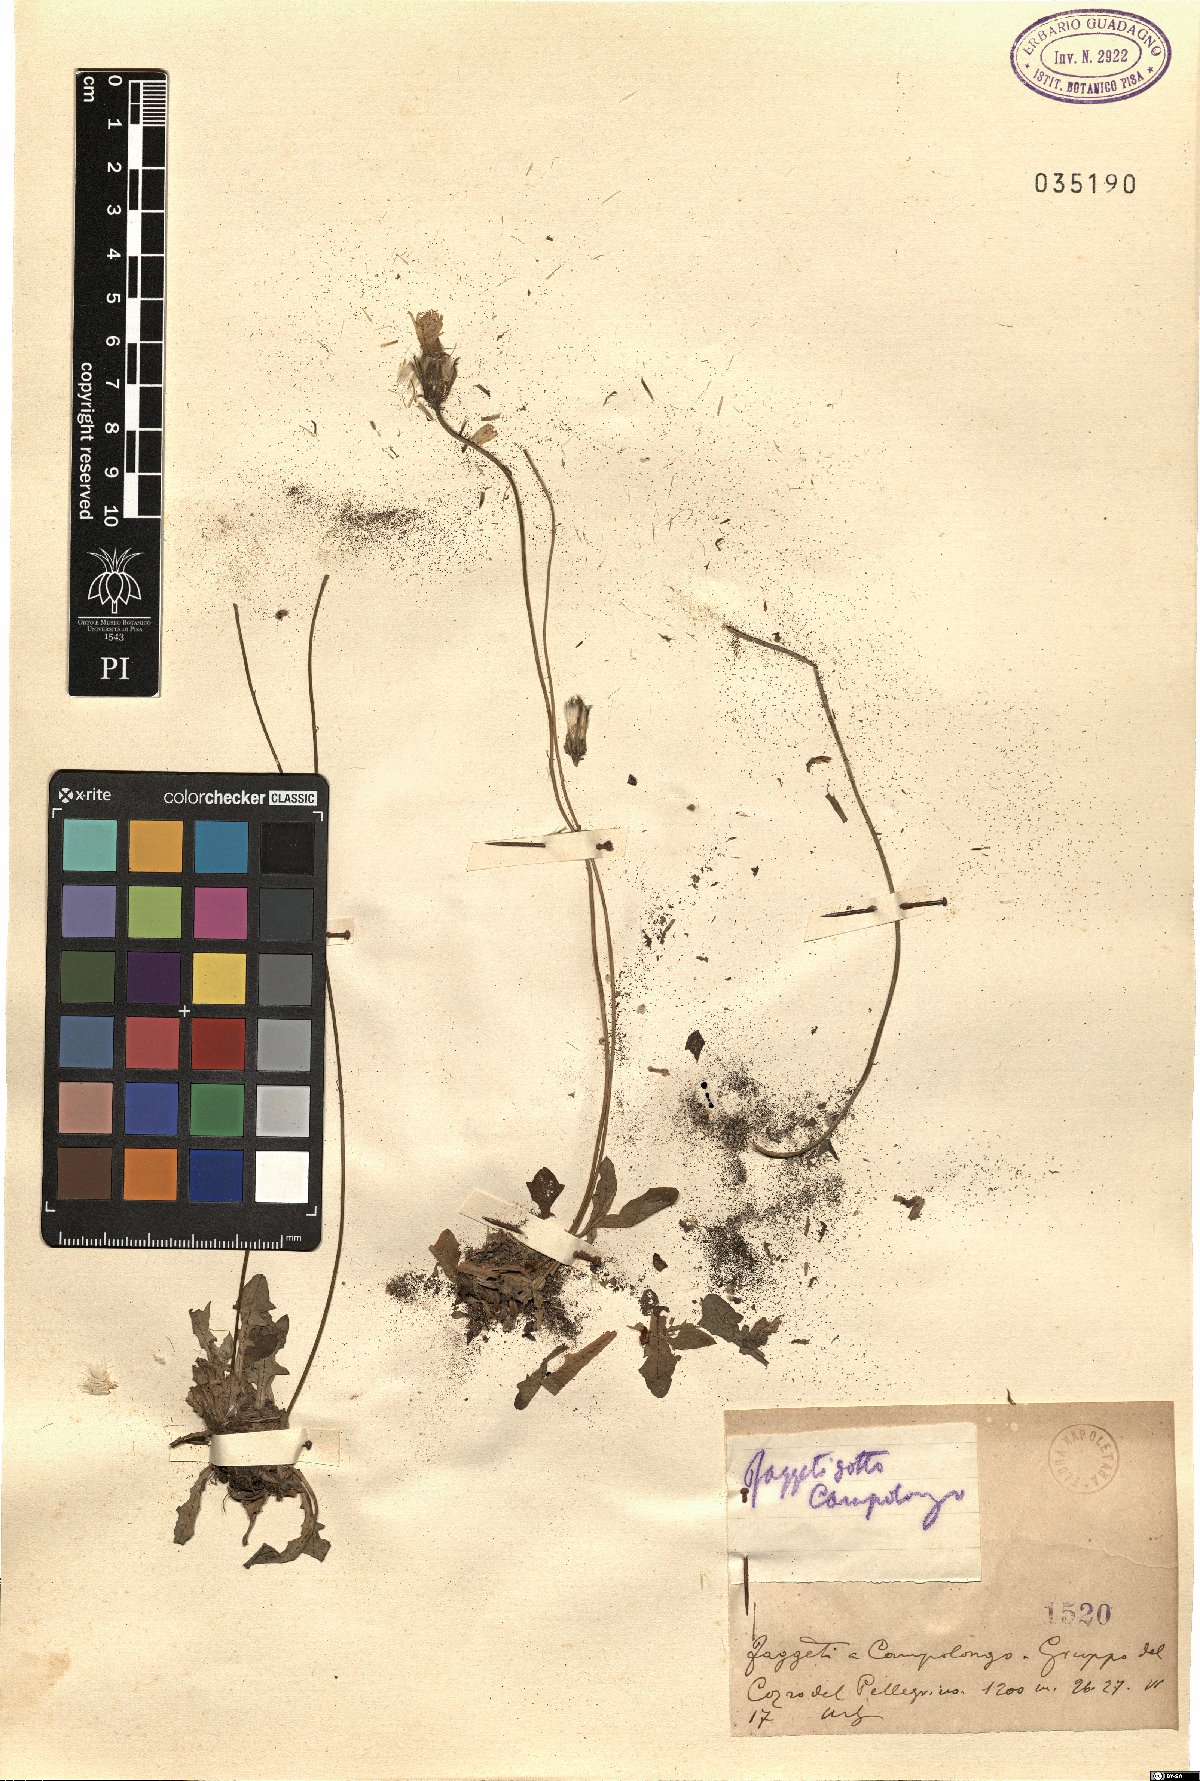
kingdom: Plantae
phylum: Tracheophyta
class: Magnoliopsida
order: Asterales
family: Asteraceae
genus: Thrincia
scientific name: Thrincia
